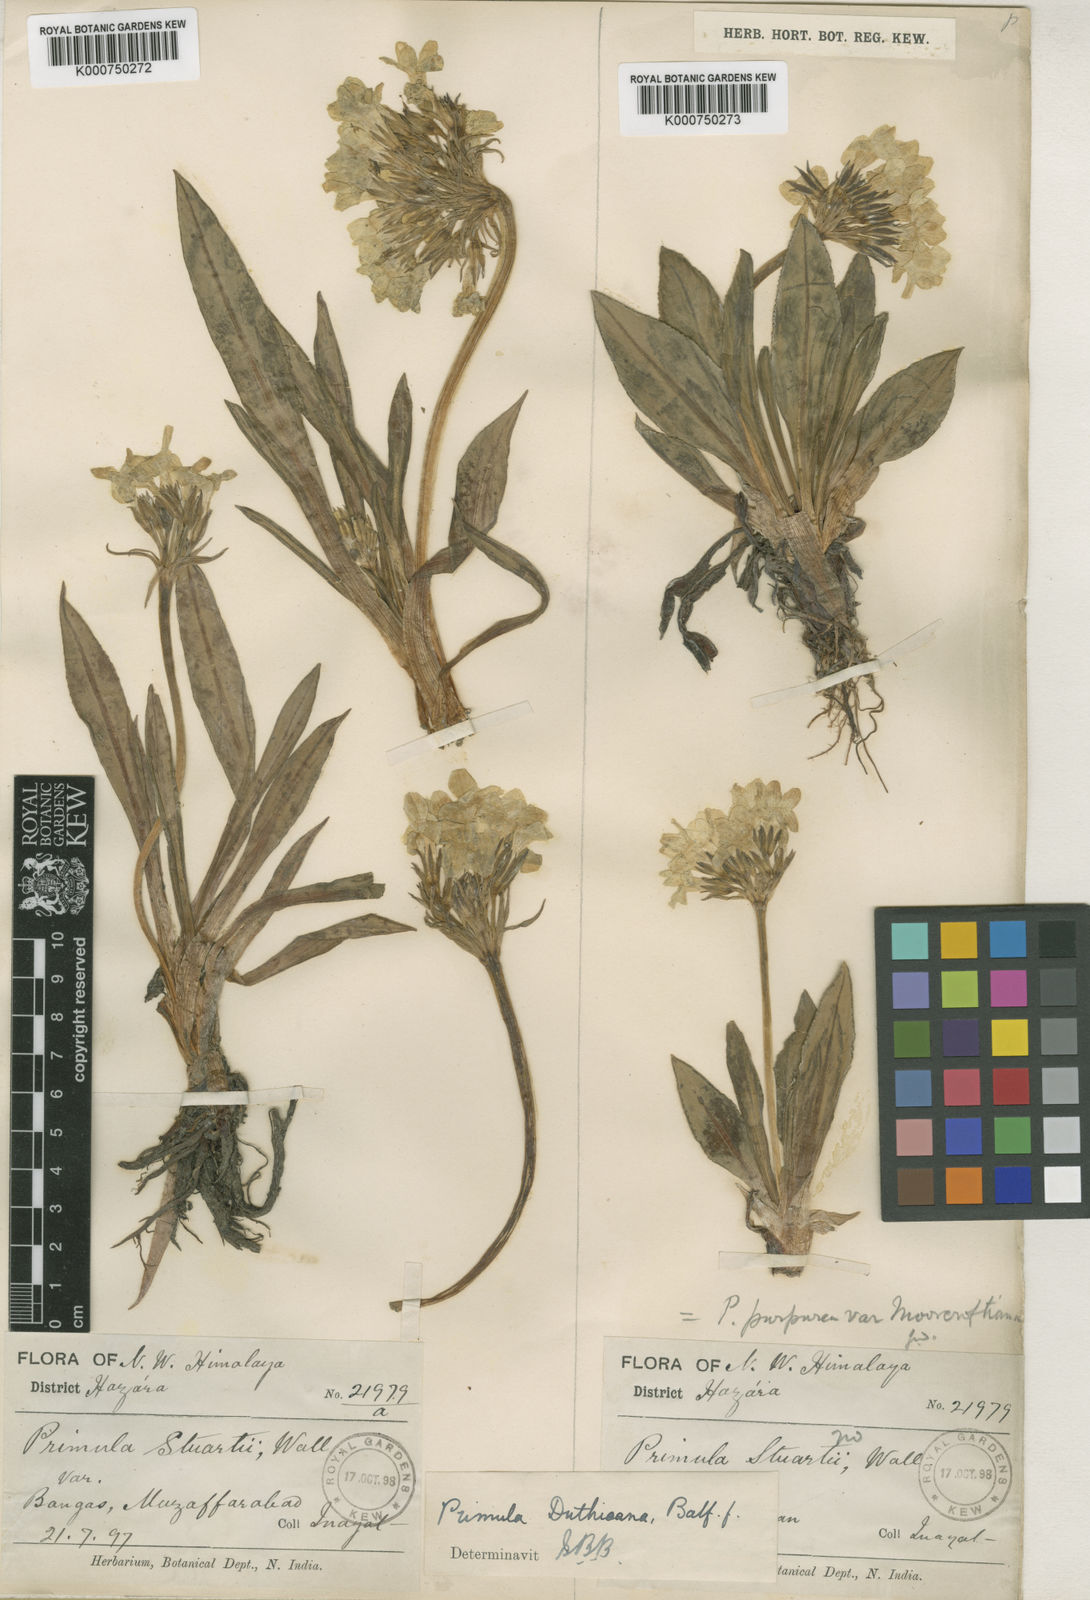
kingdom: Plantae
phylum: Tracheophyta
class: Magnoliopsida
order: Ericales
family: Primulaceae
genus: Primula
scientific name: Primula duthieana
